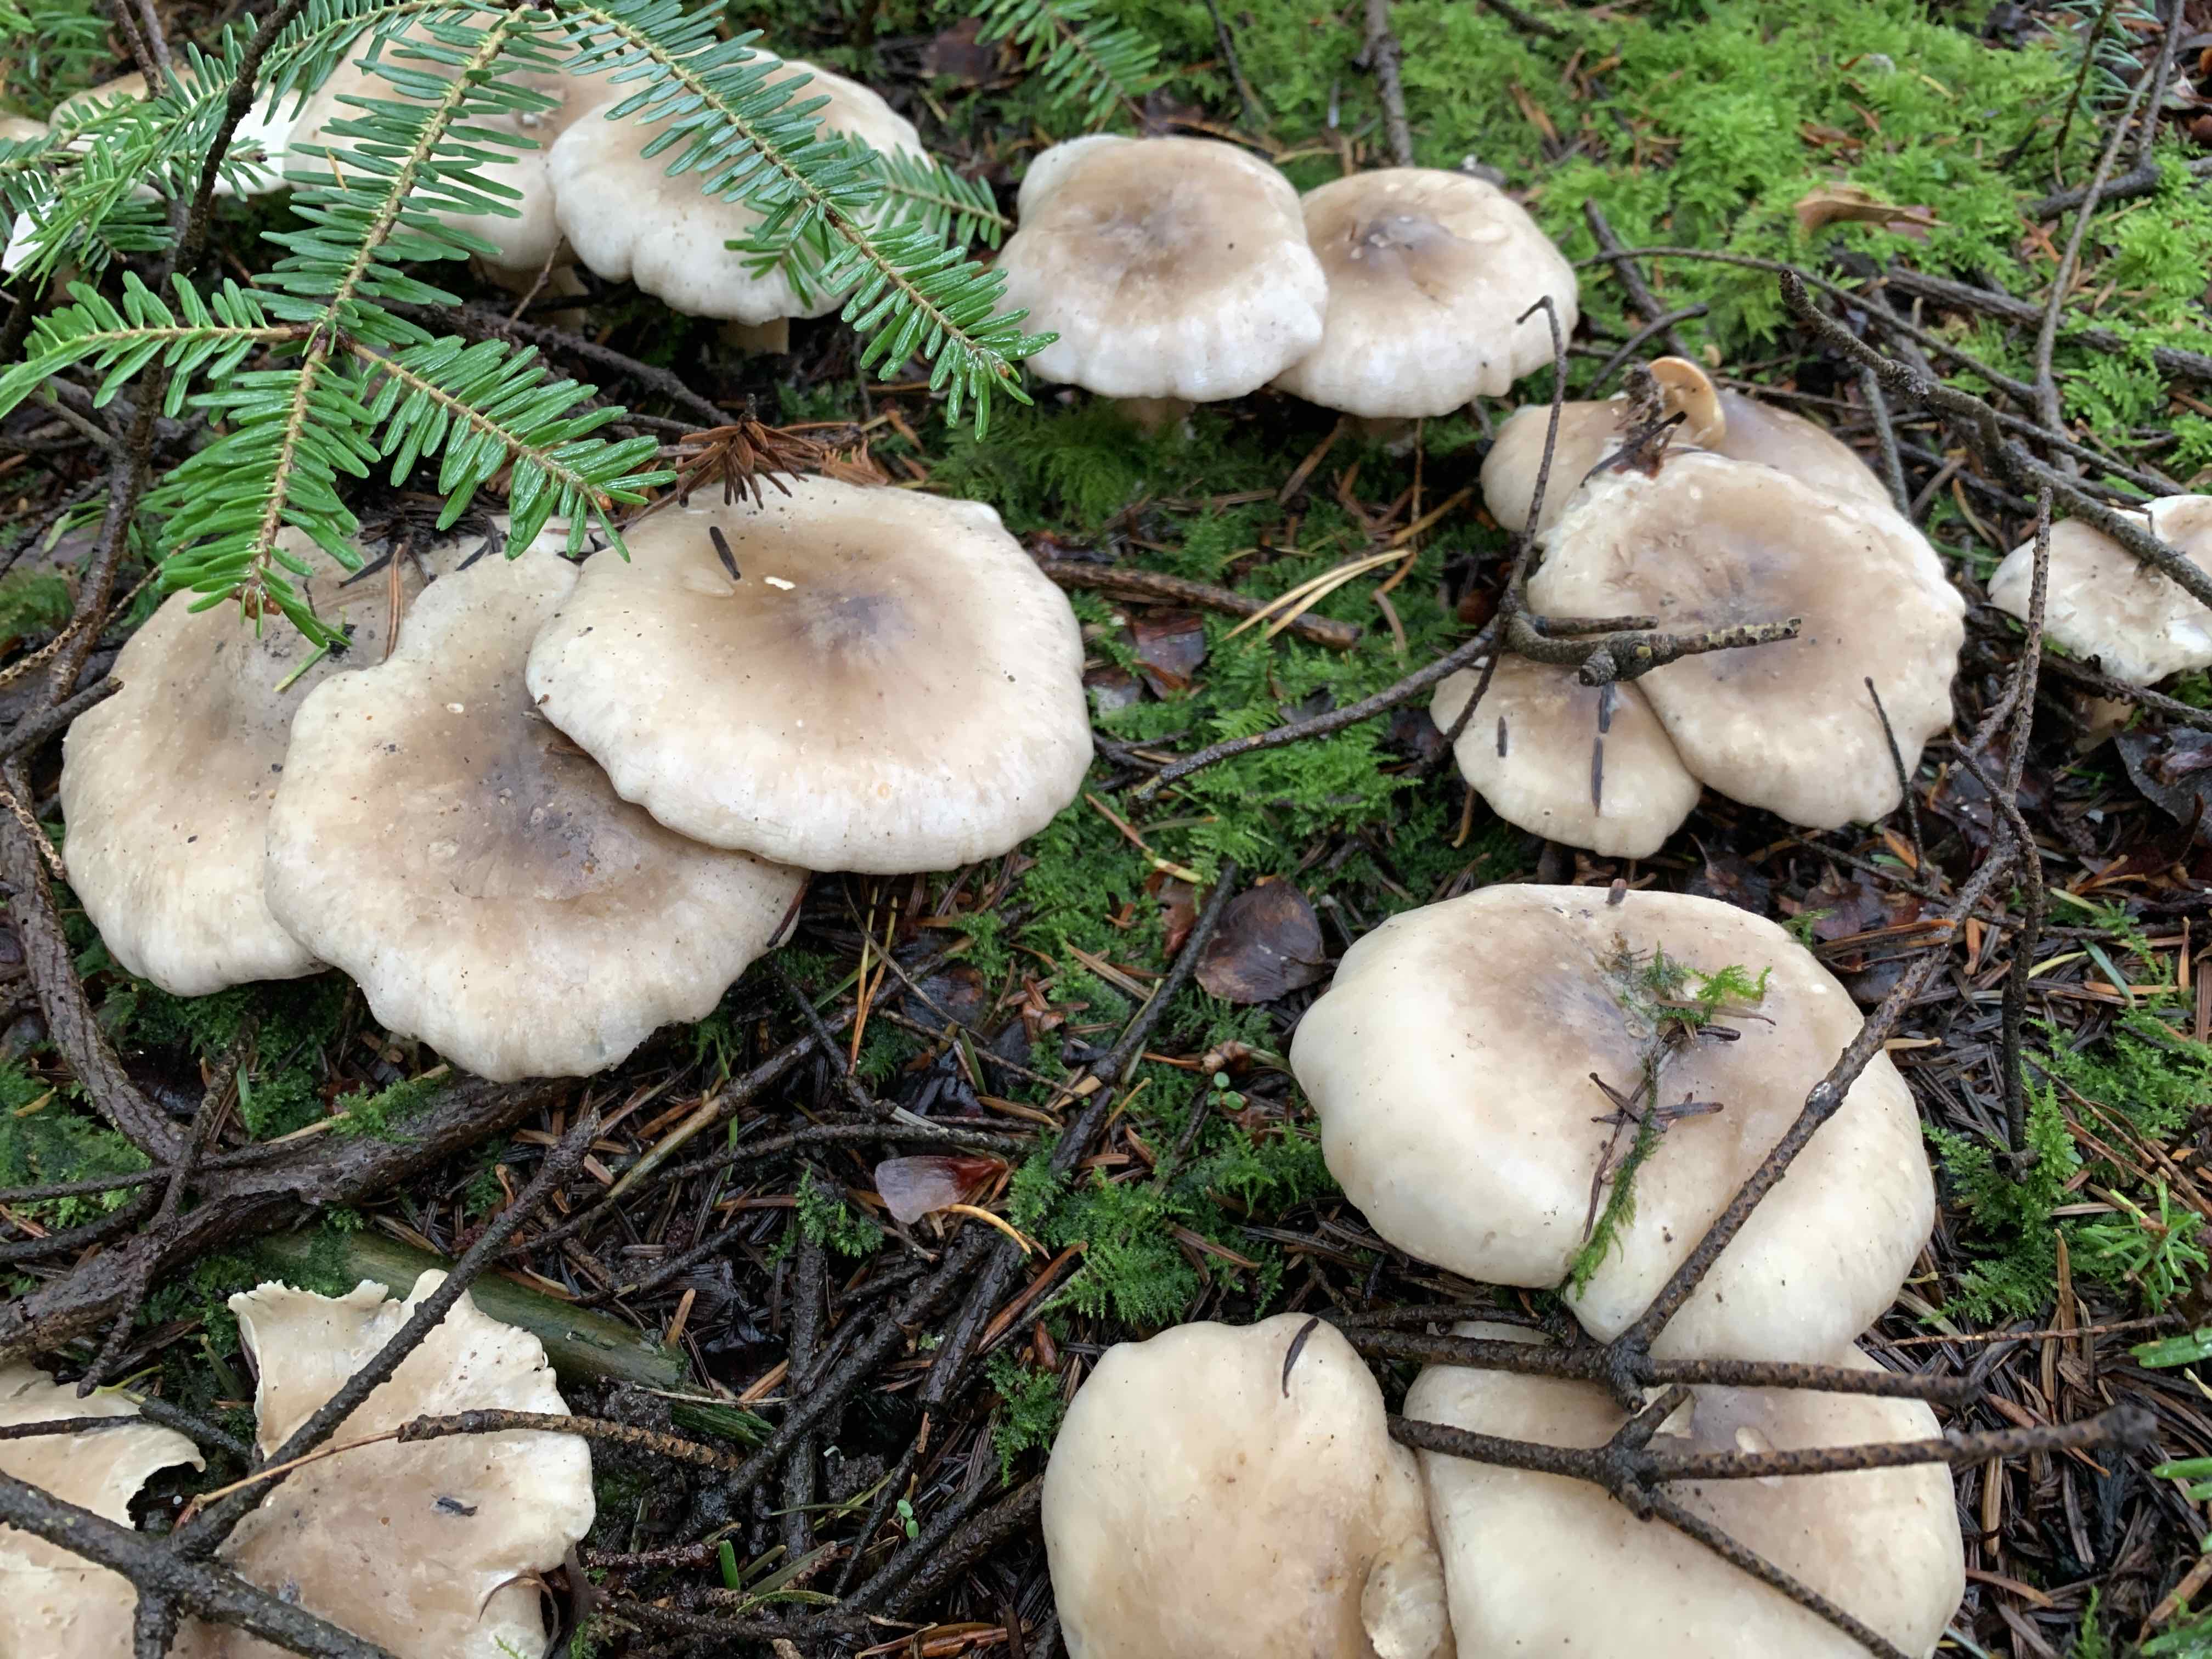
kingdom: Fungi
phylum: Basidiomycota
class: Agaricomycetes
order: Agaricales
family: Tricholomataceae
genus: Clitocybe
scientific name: Clitocybe nebularis
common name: tåge-tragthat
